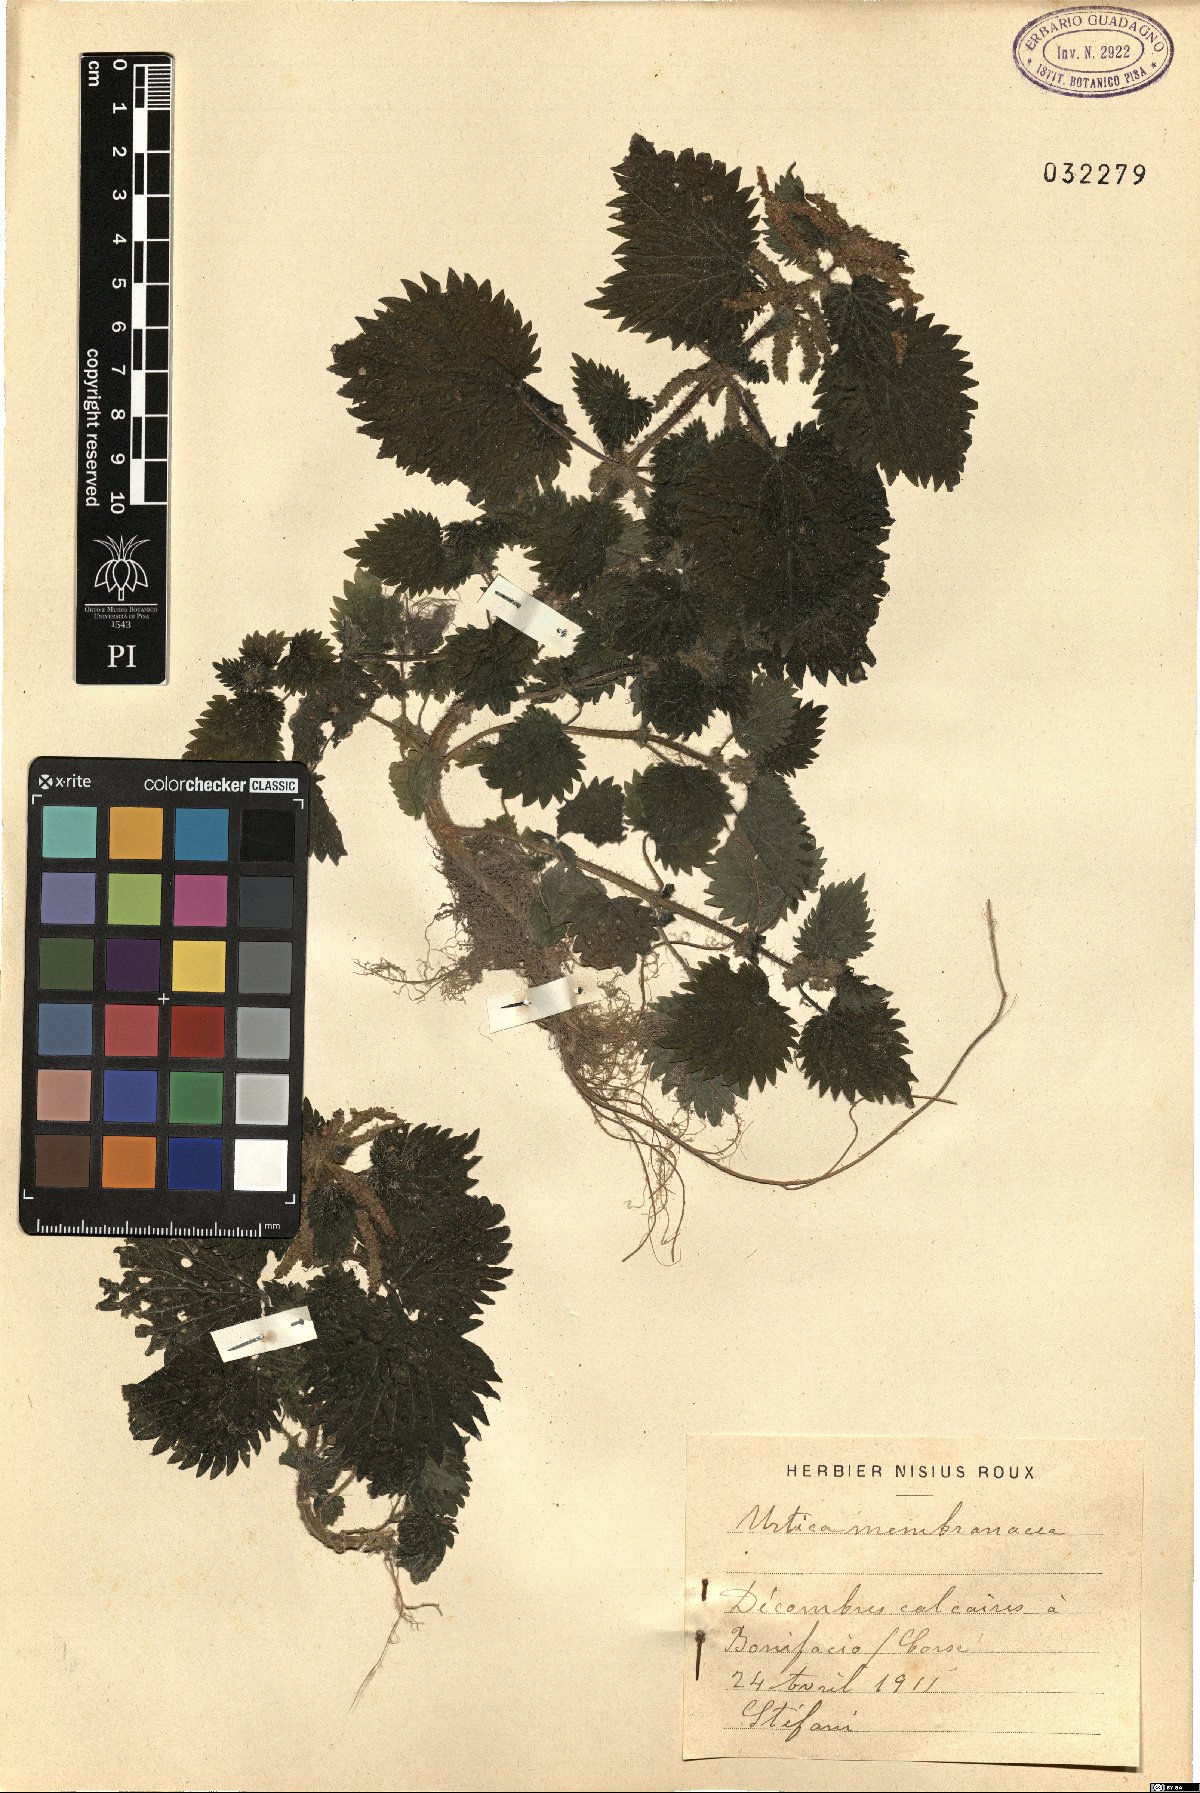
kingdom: Plantae
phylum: Tracheophyta
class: Magnoliopsida
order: Rosales
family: Urticaceae
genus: Urtica
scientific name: Urtica membranacea
